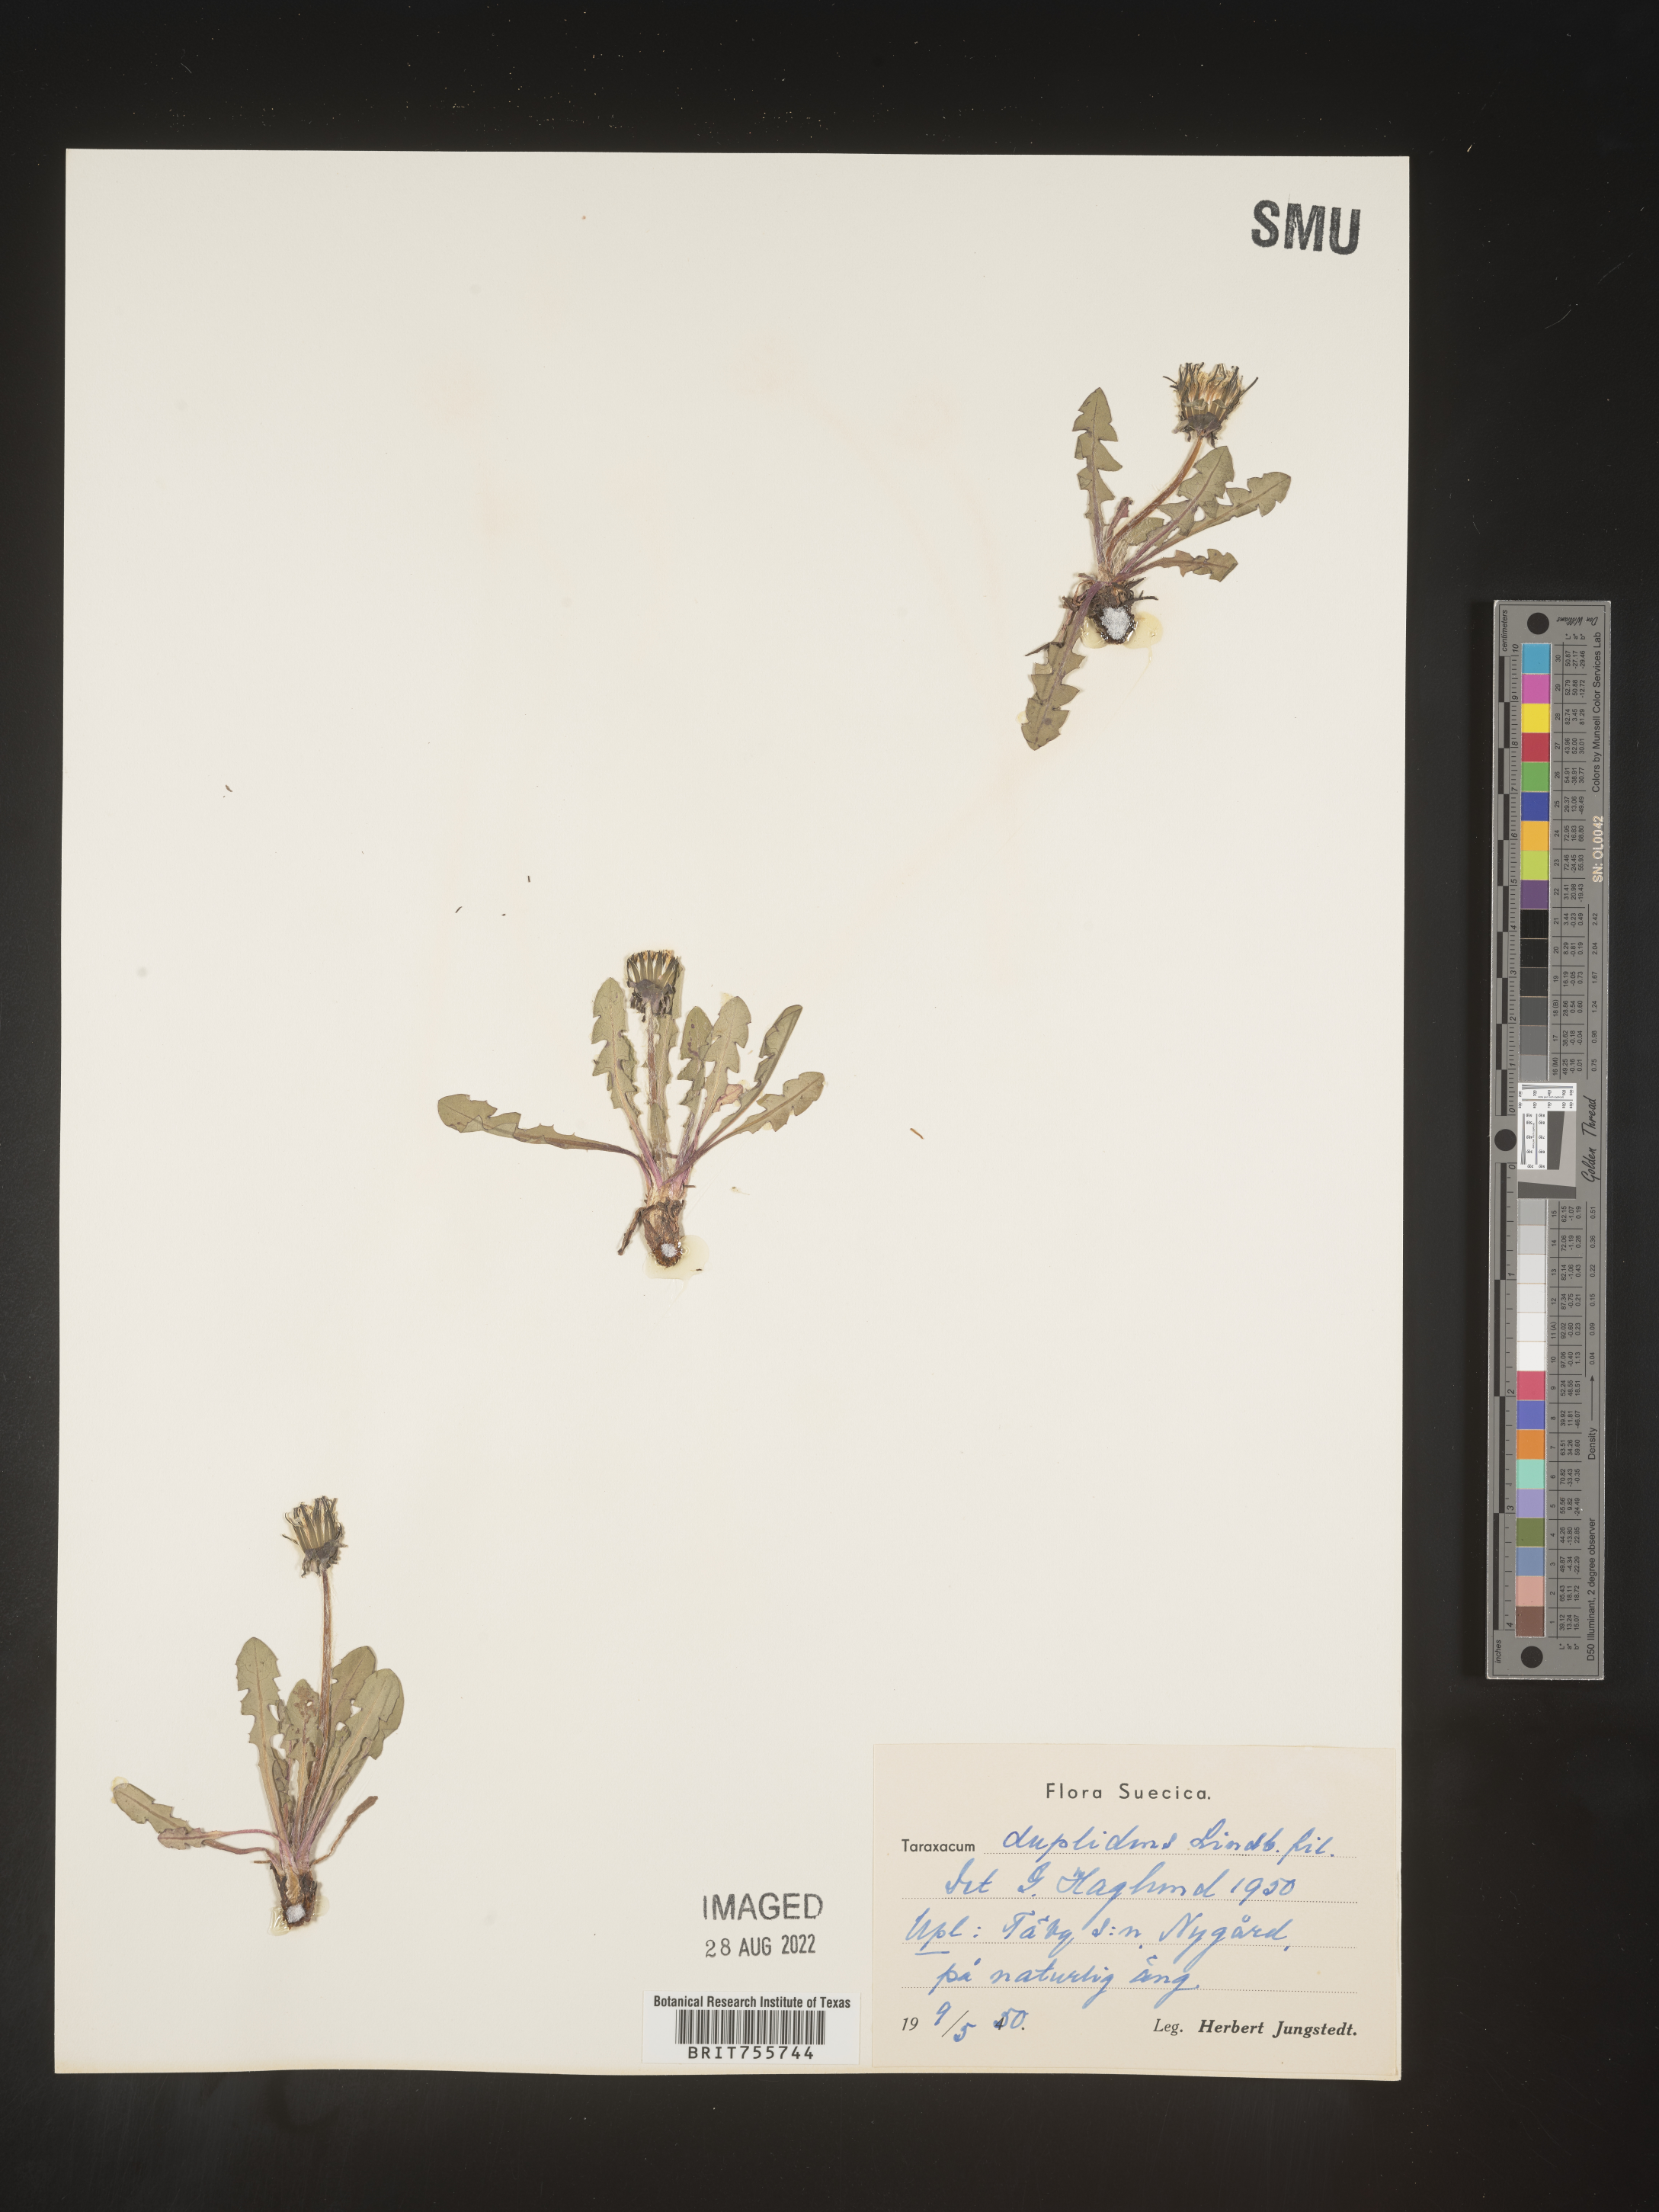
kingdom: Plantae
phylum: Tracheophyta
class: Magnoliopsida
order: Asterales
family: Asteraceae
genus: Taraxacum
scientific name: Taraxacum
